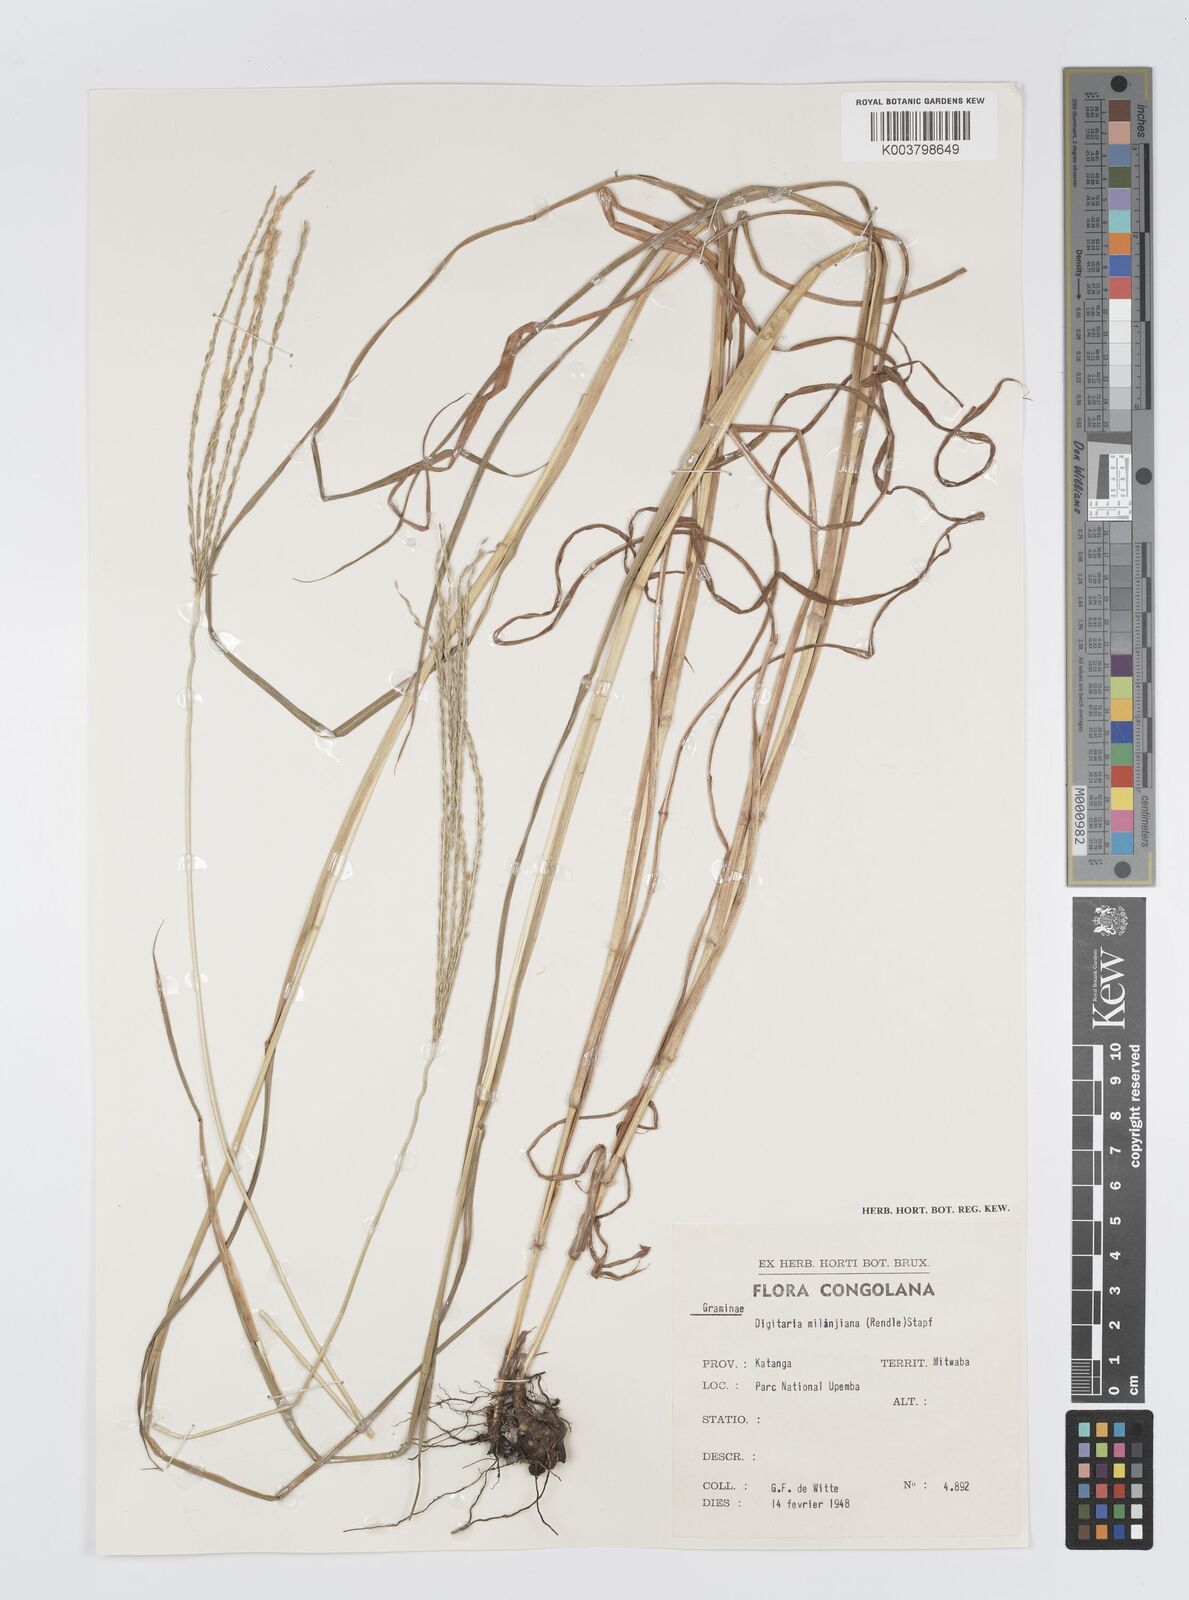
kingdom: Plantae
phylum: Tracheophyta
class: Liliopsida
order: Poales
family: Poaceae
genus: Digitaria
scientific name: Digitaria milanjiana
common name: Madagascar crabgrass
